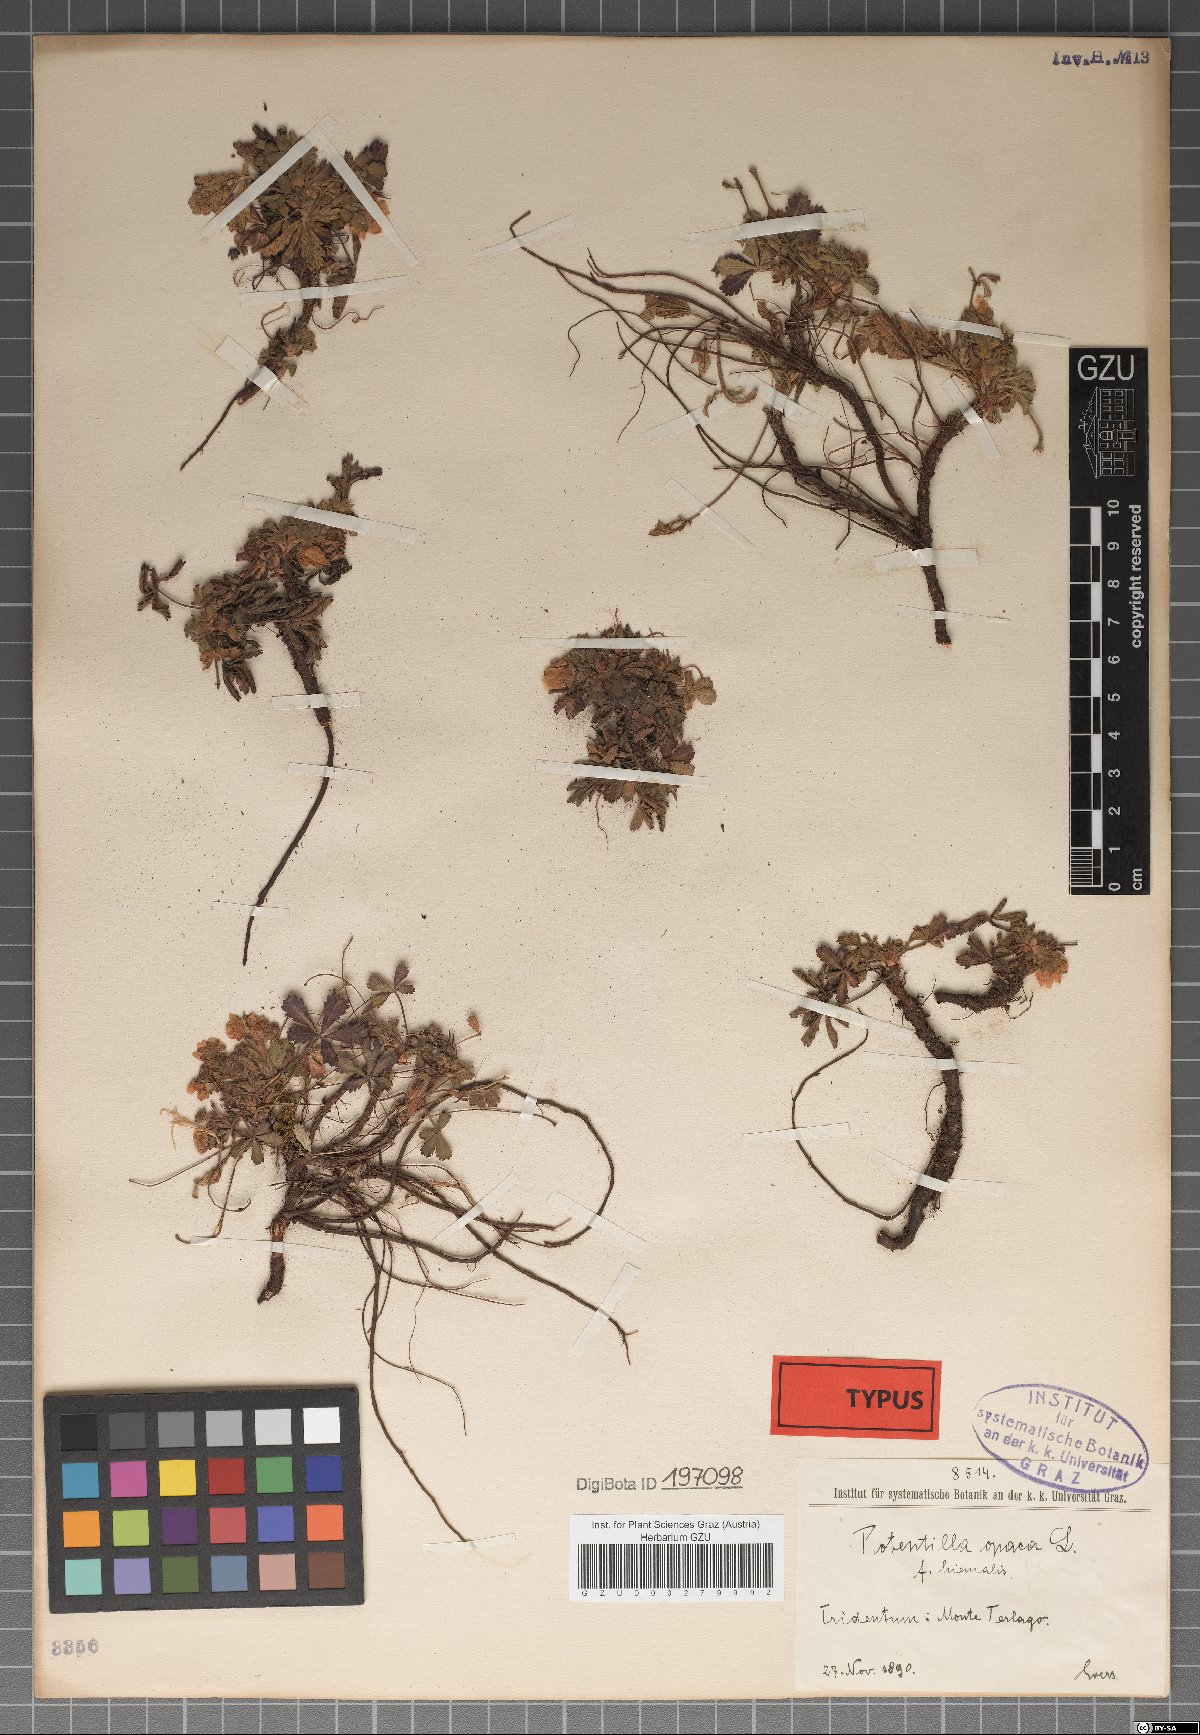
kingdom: Plantae
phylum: Tracheophyta
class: Magnoliopsida
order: Rosales
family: Rosaceae
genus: Potentilla
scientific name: Potentilla
